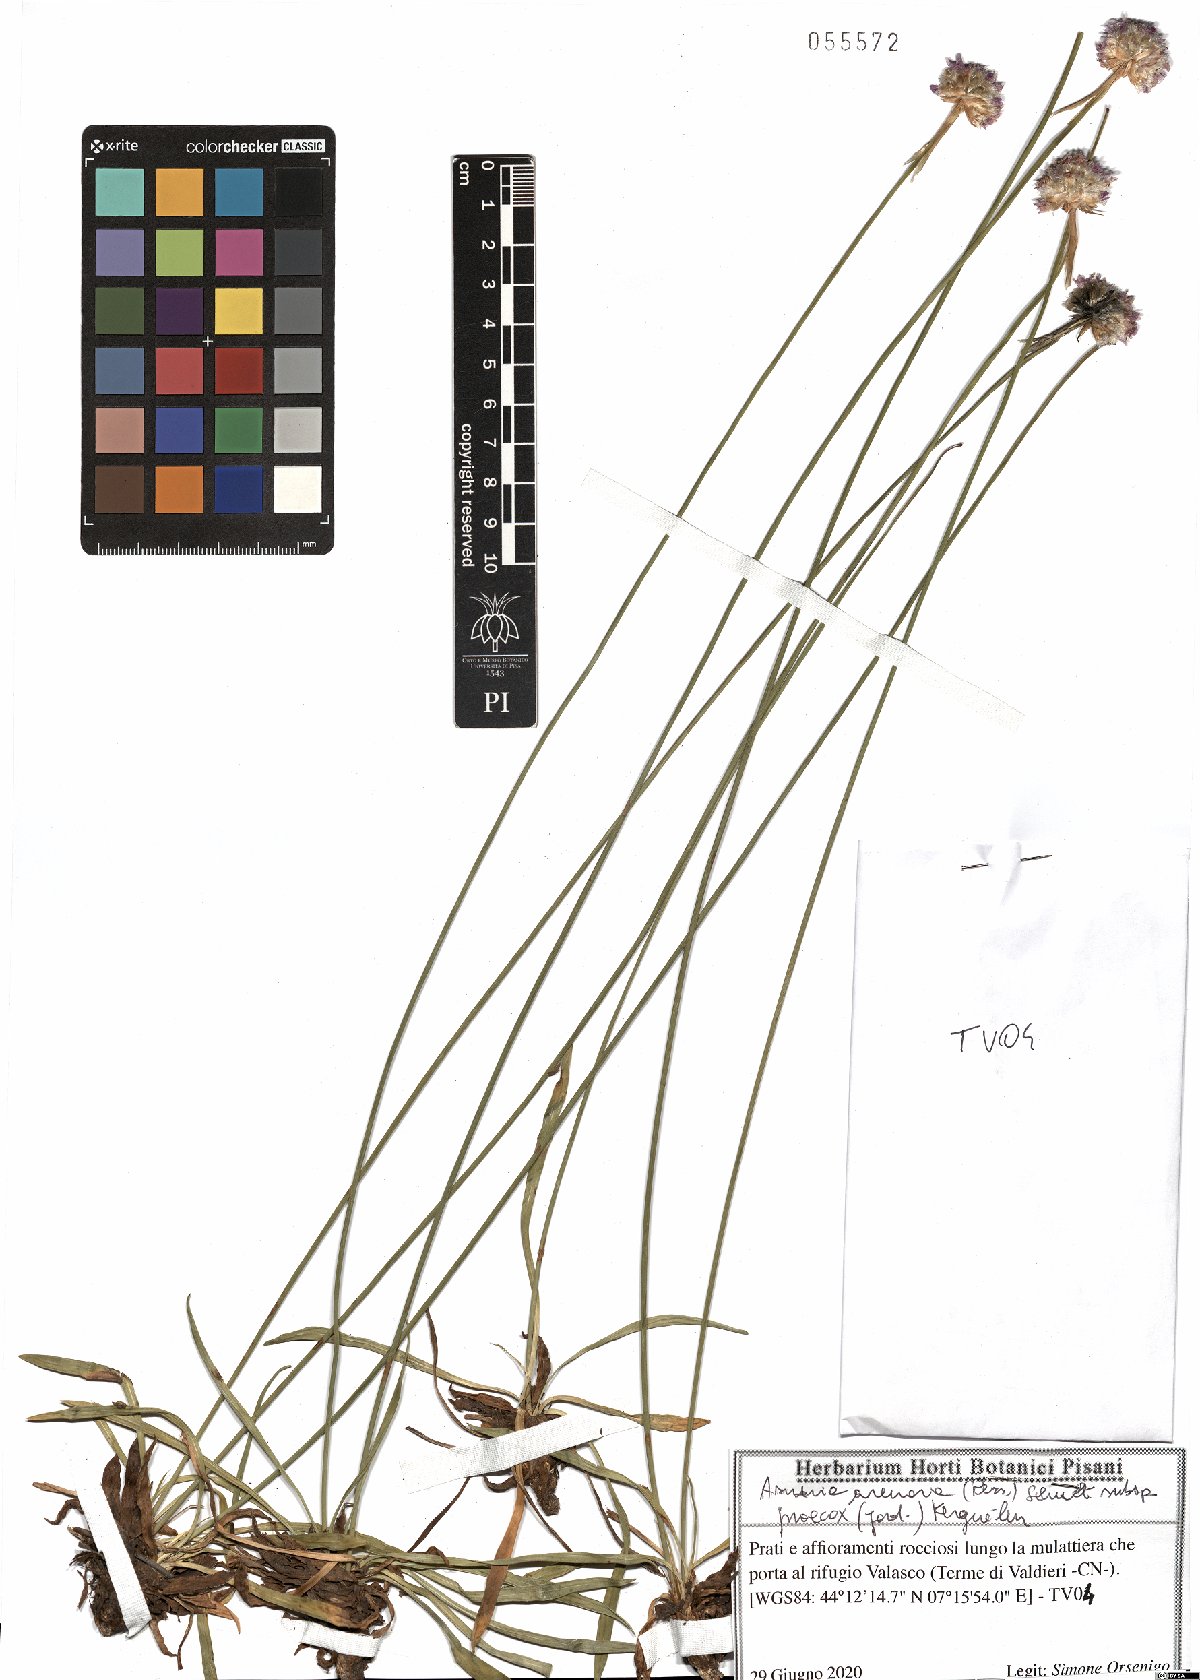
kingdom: Plantae
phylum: Tracheophyta
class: Magnoliopsida
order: Caryophyllales
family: Plumbaginaceae
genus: Armeria
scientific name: Armeria arenaria
